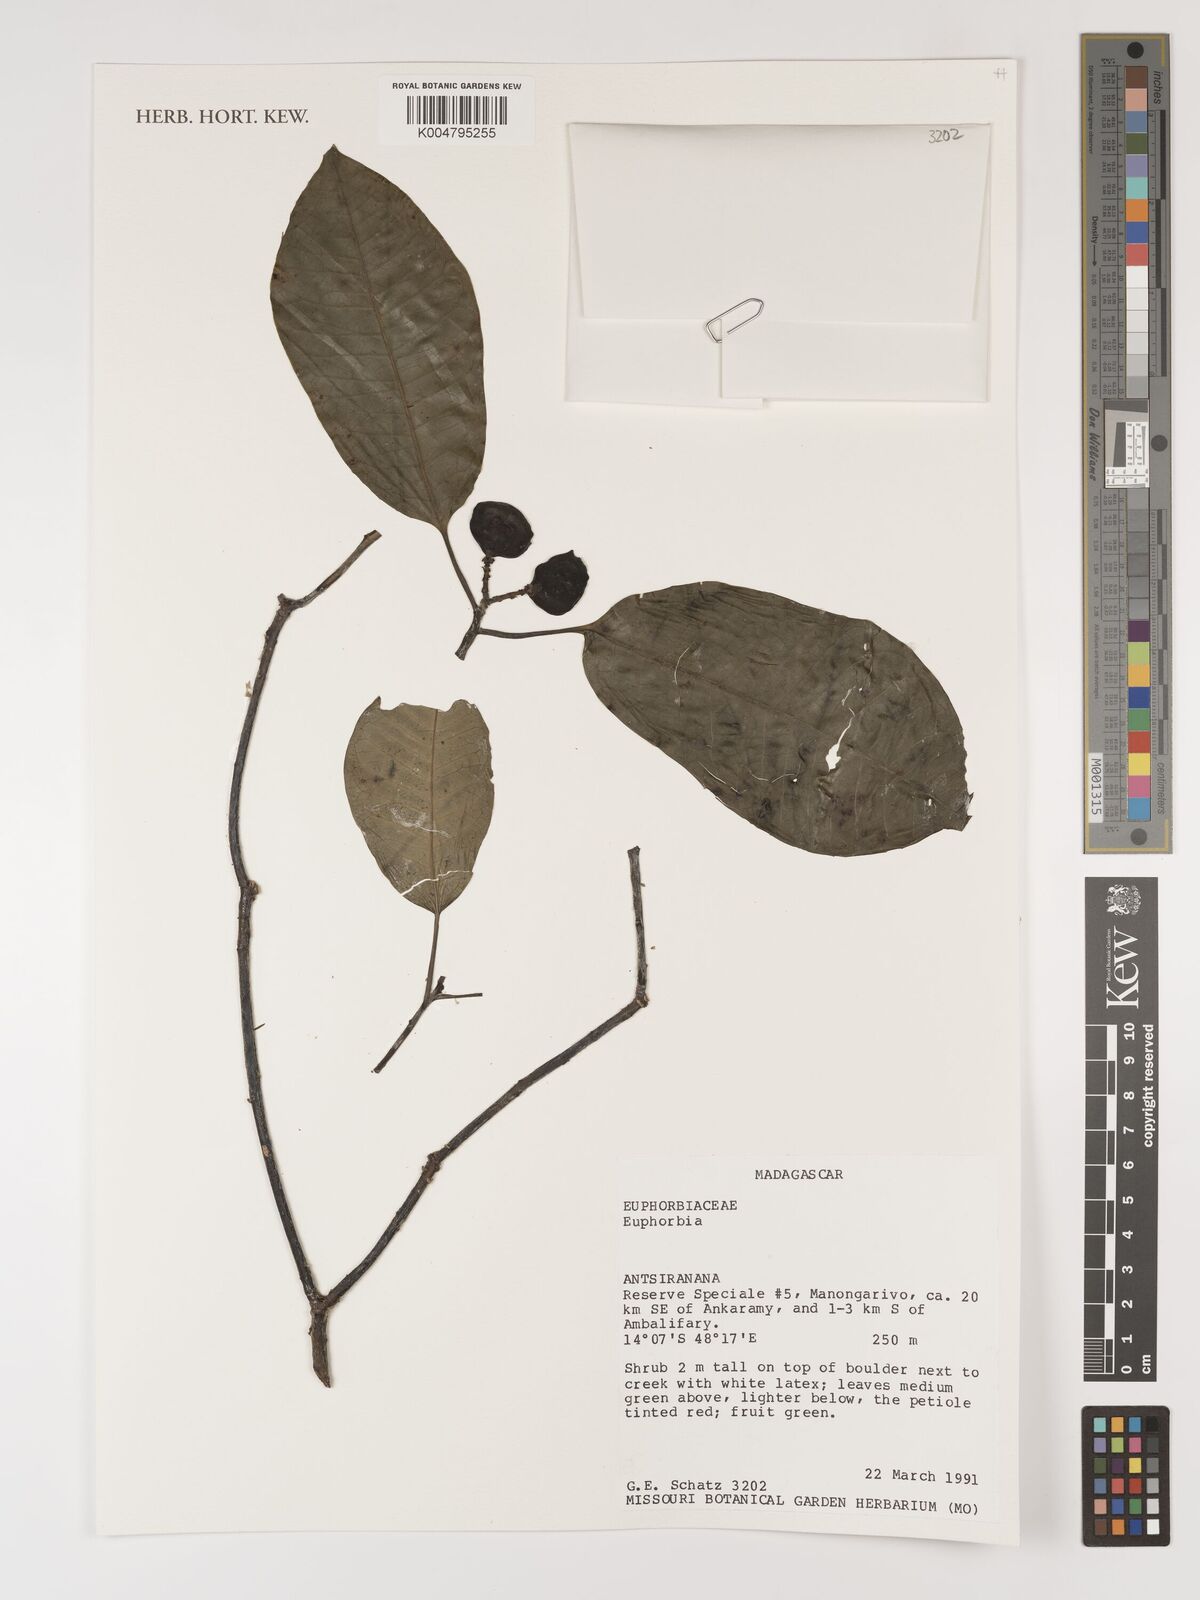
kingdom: Plantae
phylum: Tracheophyta
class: Magnoliopsida
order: Malpighiales
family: Euphorbiaceae
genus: Euphorbia
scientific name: Euphorbia
